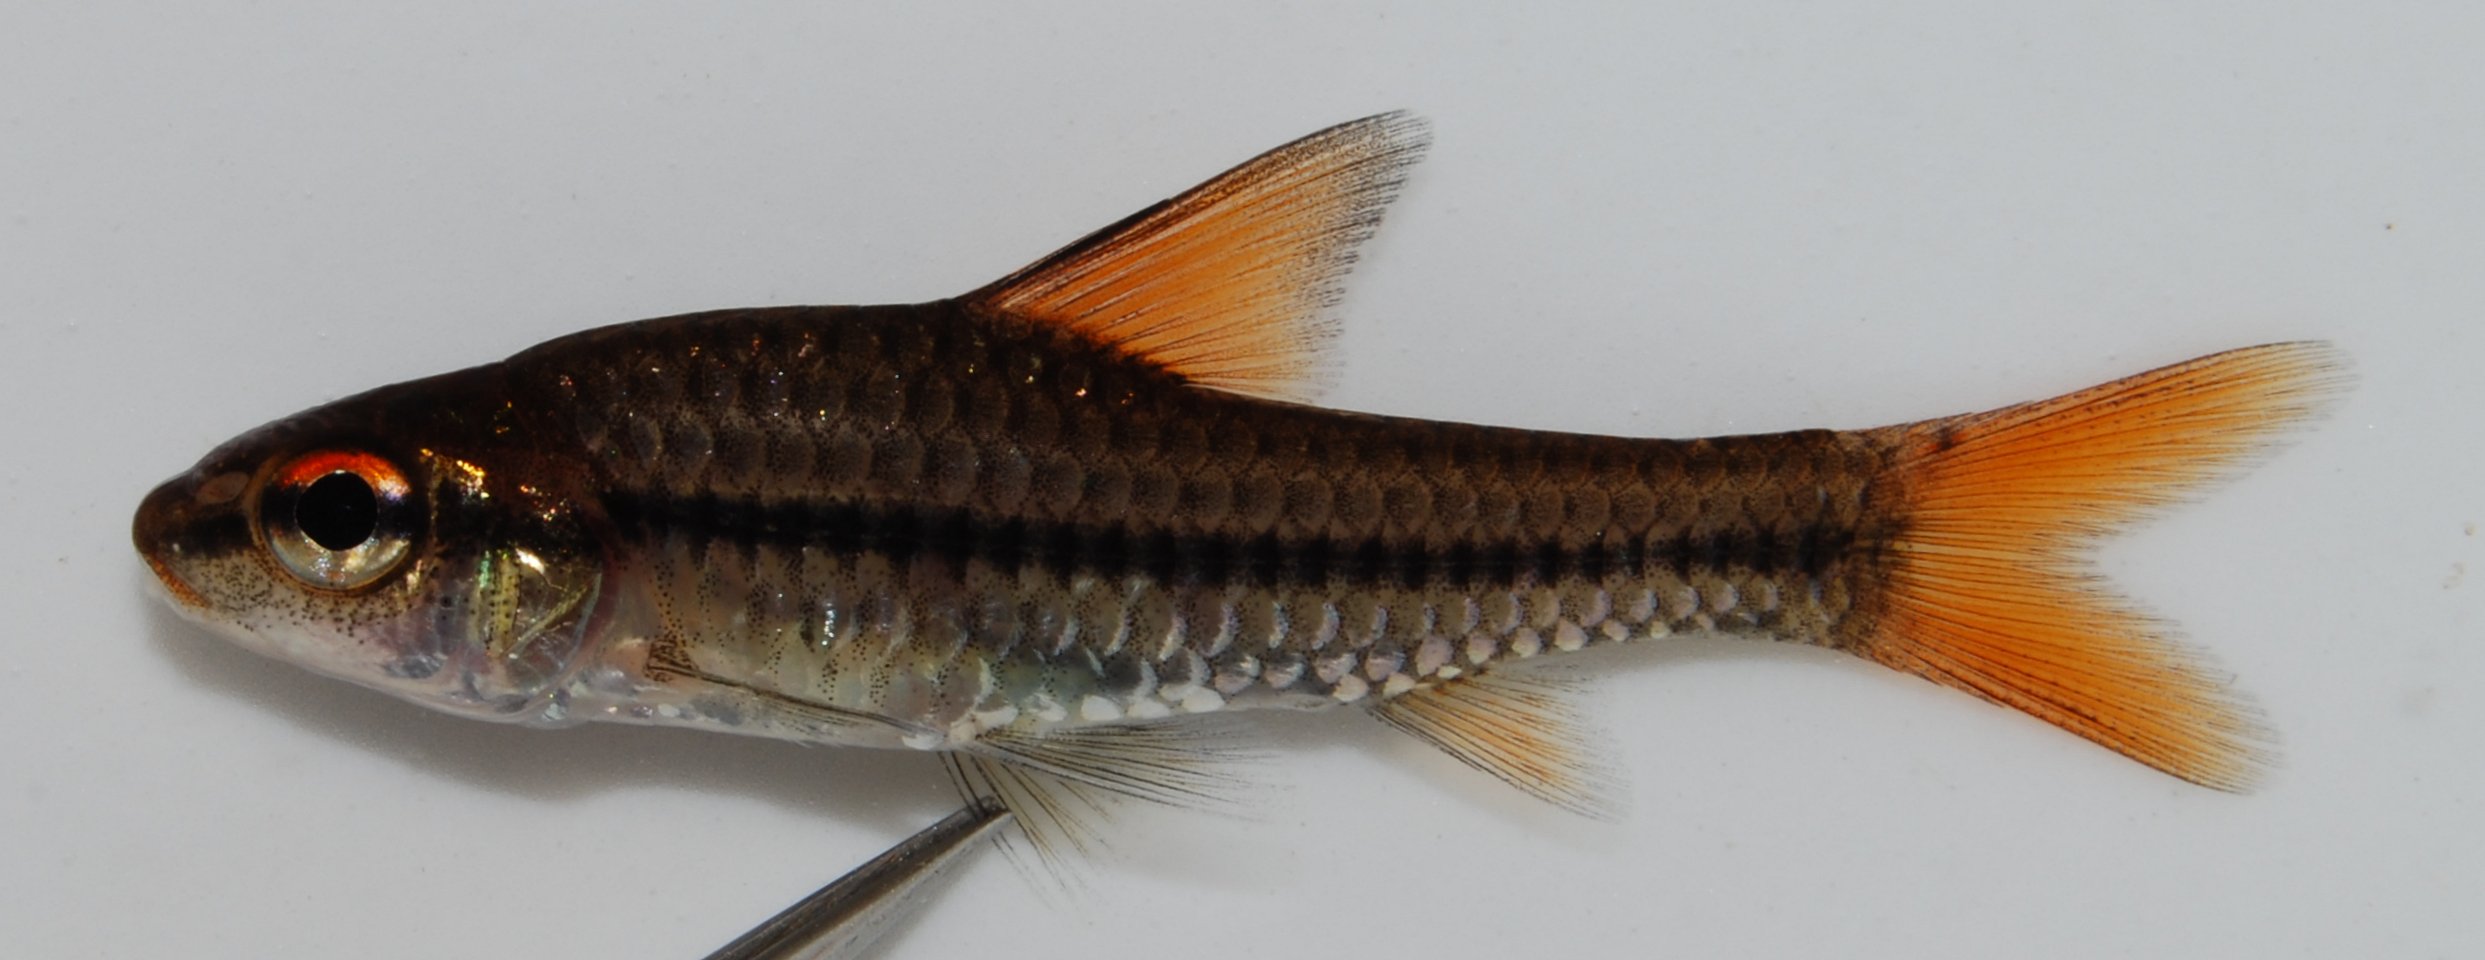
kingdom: Animalia
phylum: Chordata
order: Cypriniformes
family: Cyprinidae
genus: Enteromius
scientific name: Enteromius radiatus
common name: Beira barb
